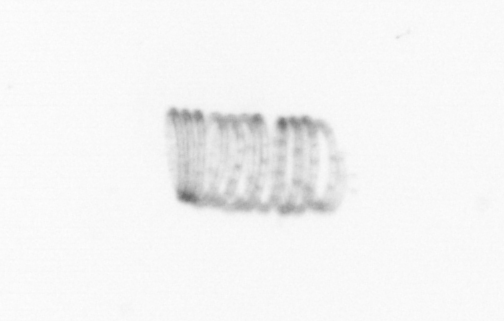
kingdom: Chromista
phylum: Ochrophyta
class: Bacillariophyceae
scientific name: Bacillariophyceae
